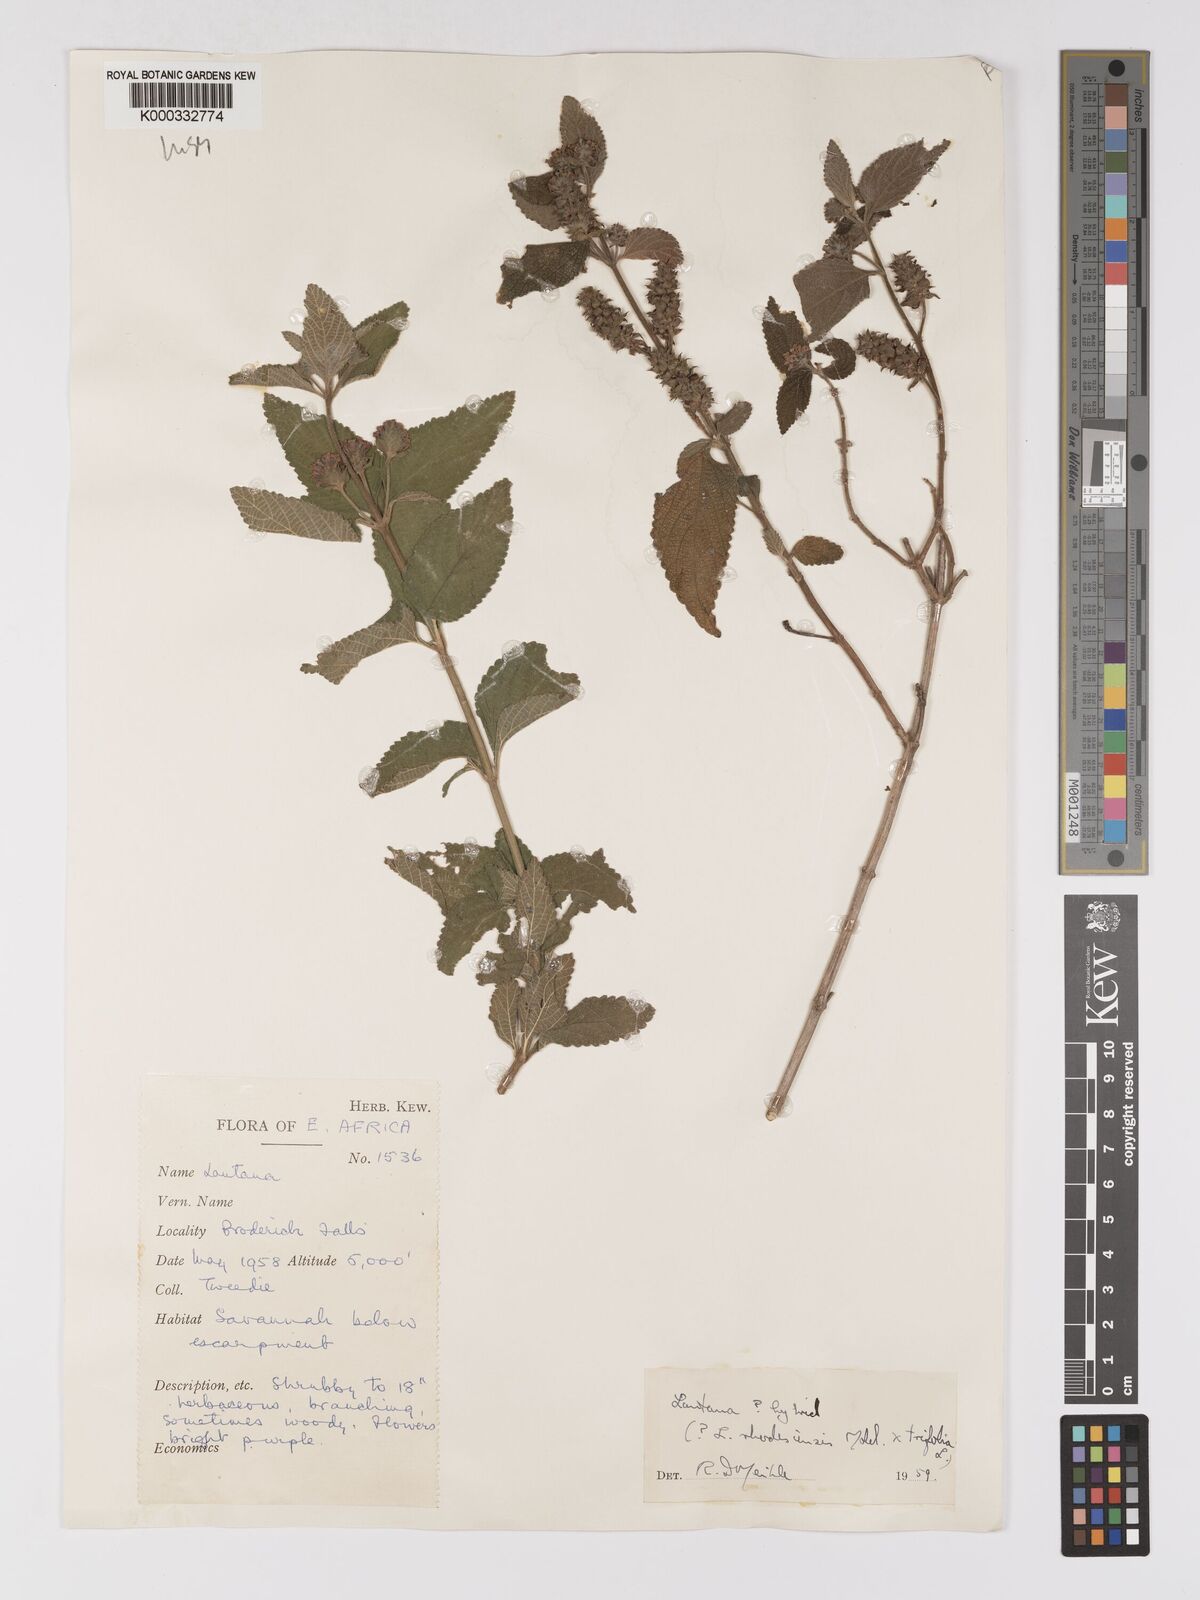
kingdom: Plantae
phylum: Tracheophyta
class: Magnoliopsida
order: Lamiales
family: Verbenaceae
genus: Lantana
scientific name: Lantana ukambensis
